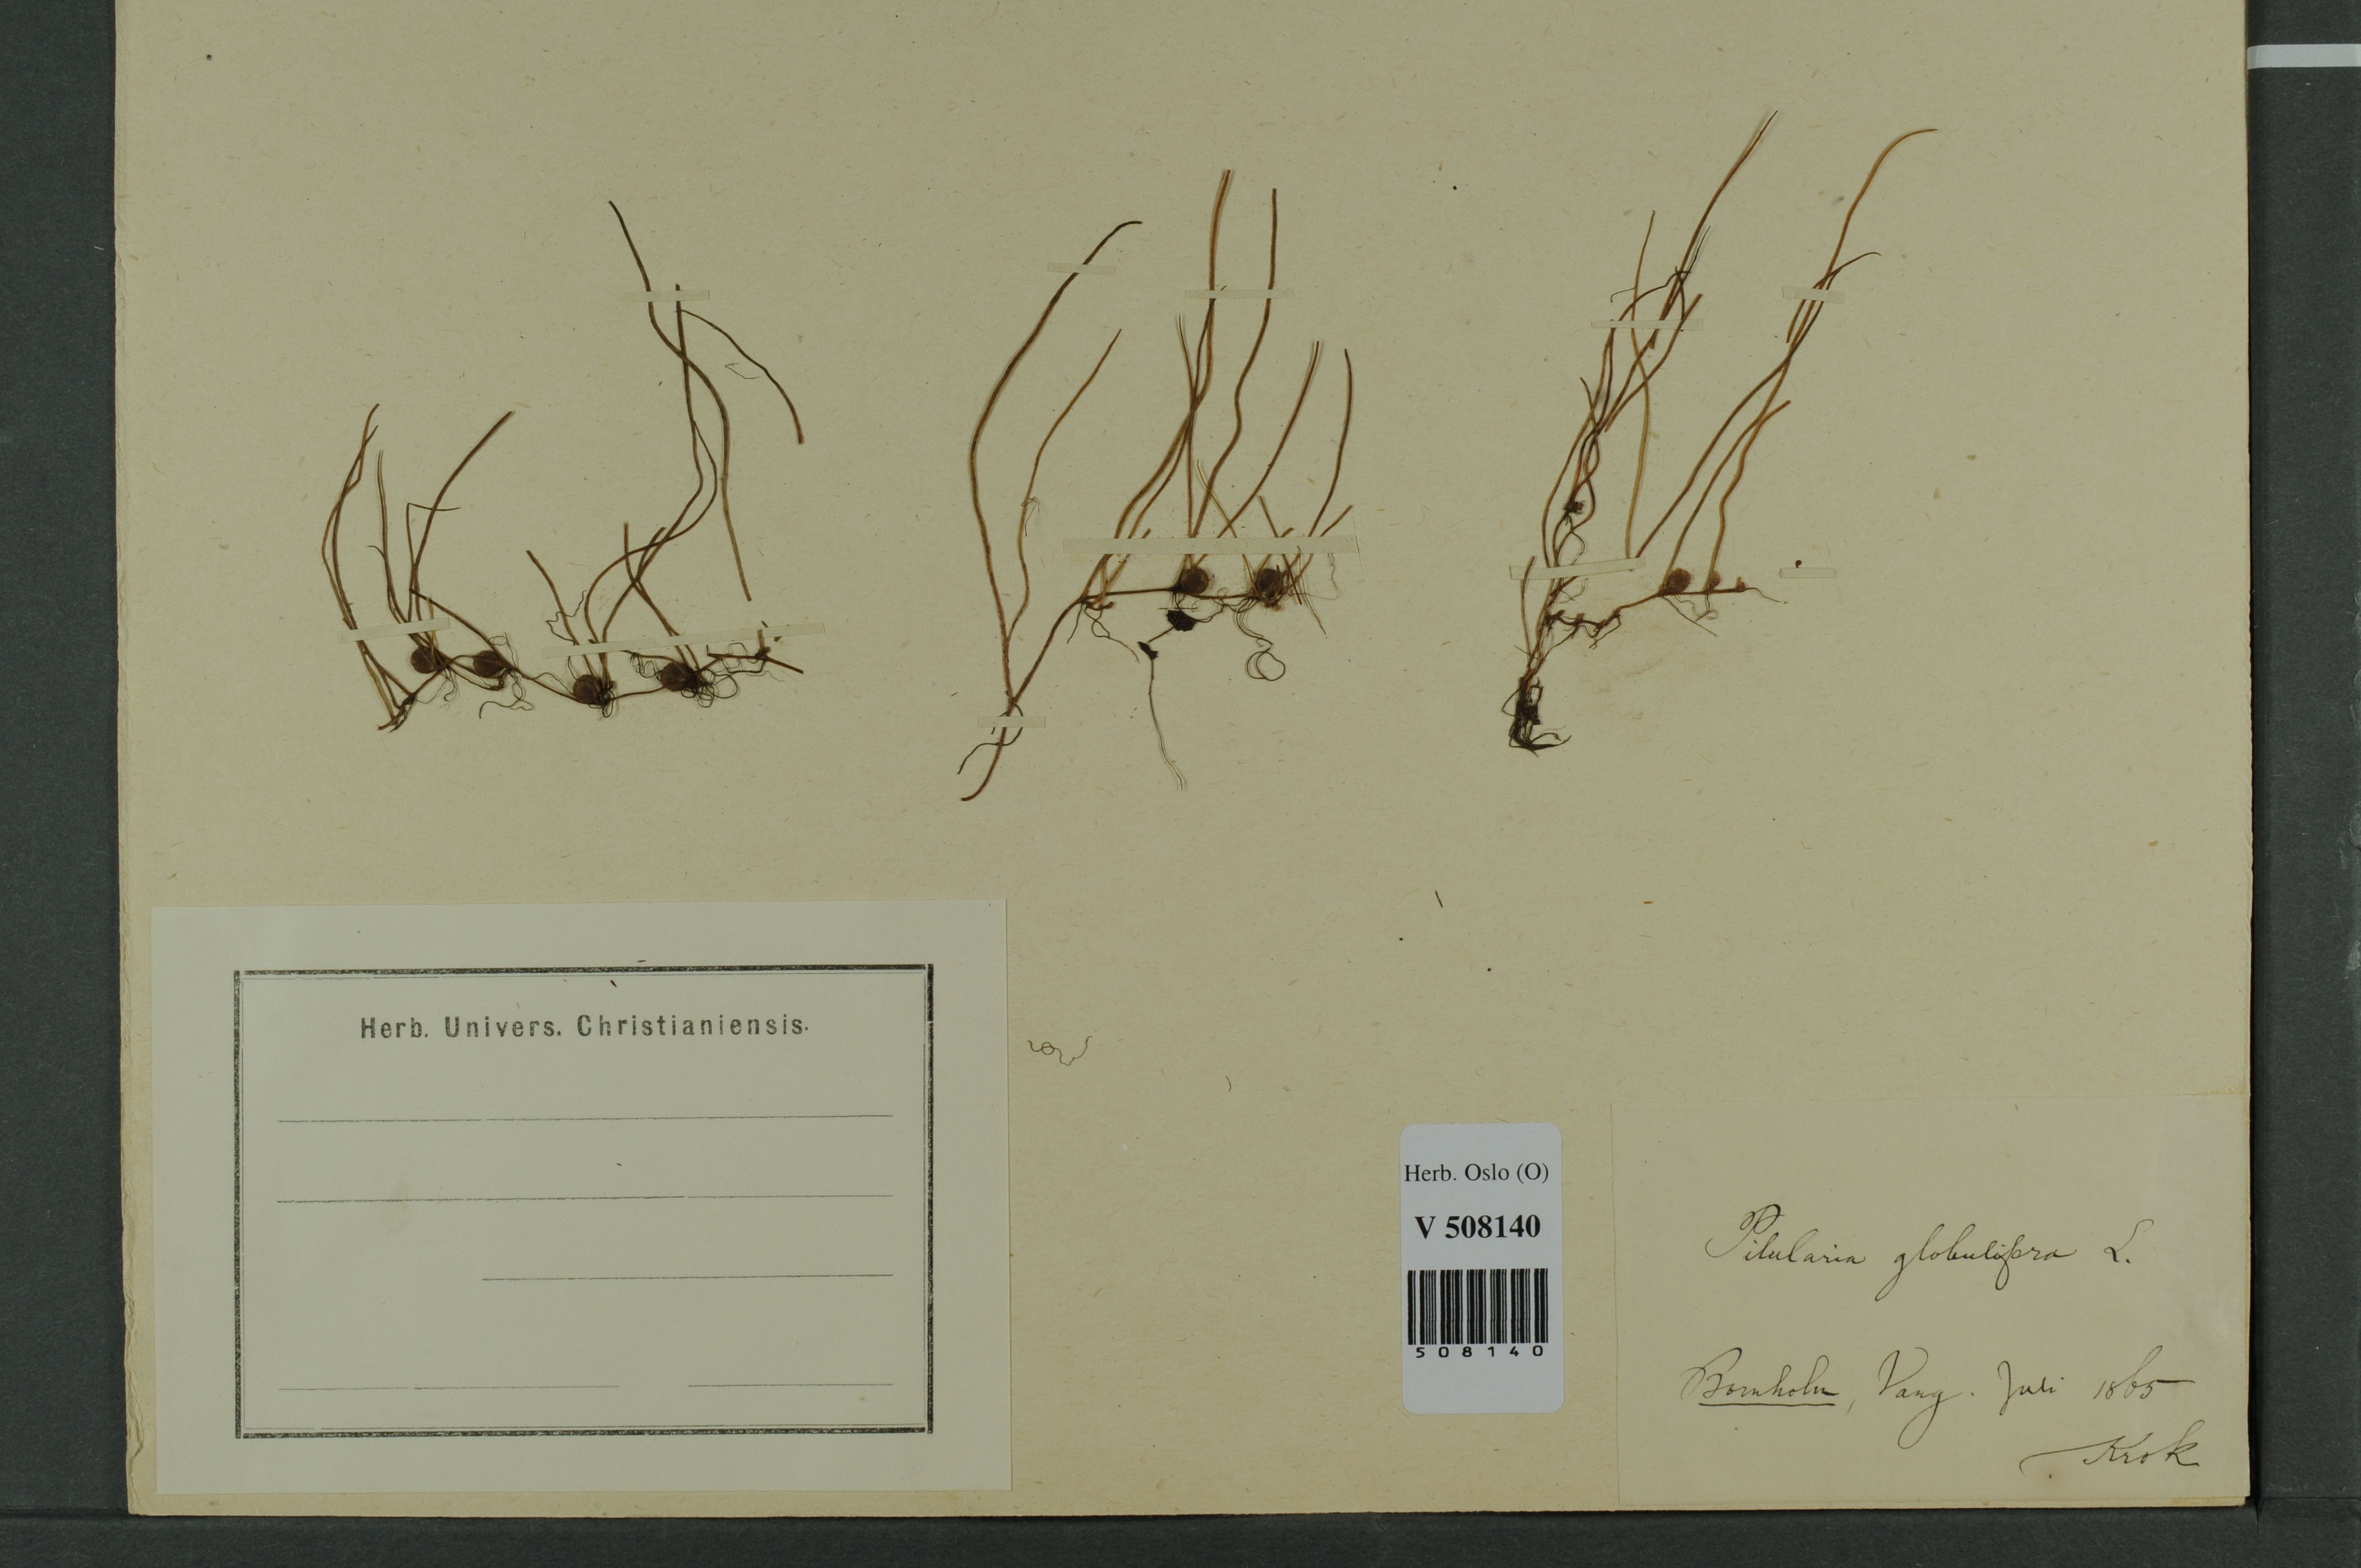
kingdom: Plantae
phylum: Tracheophyta
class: Polypodiopsida
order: Salviniales
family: Marsileaceae
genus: Pilularia
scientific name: Pilularia globulifera
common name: Pillwort
